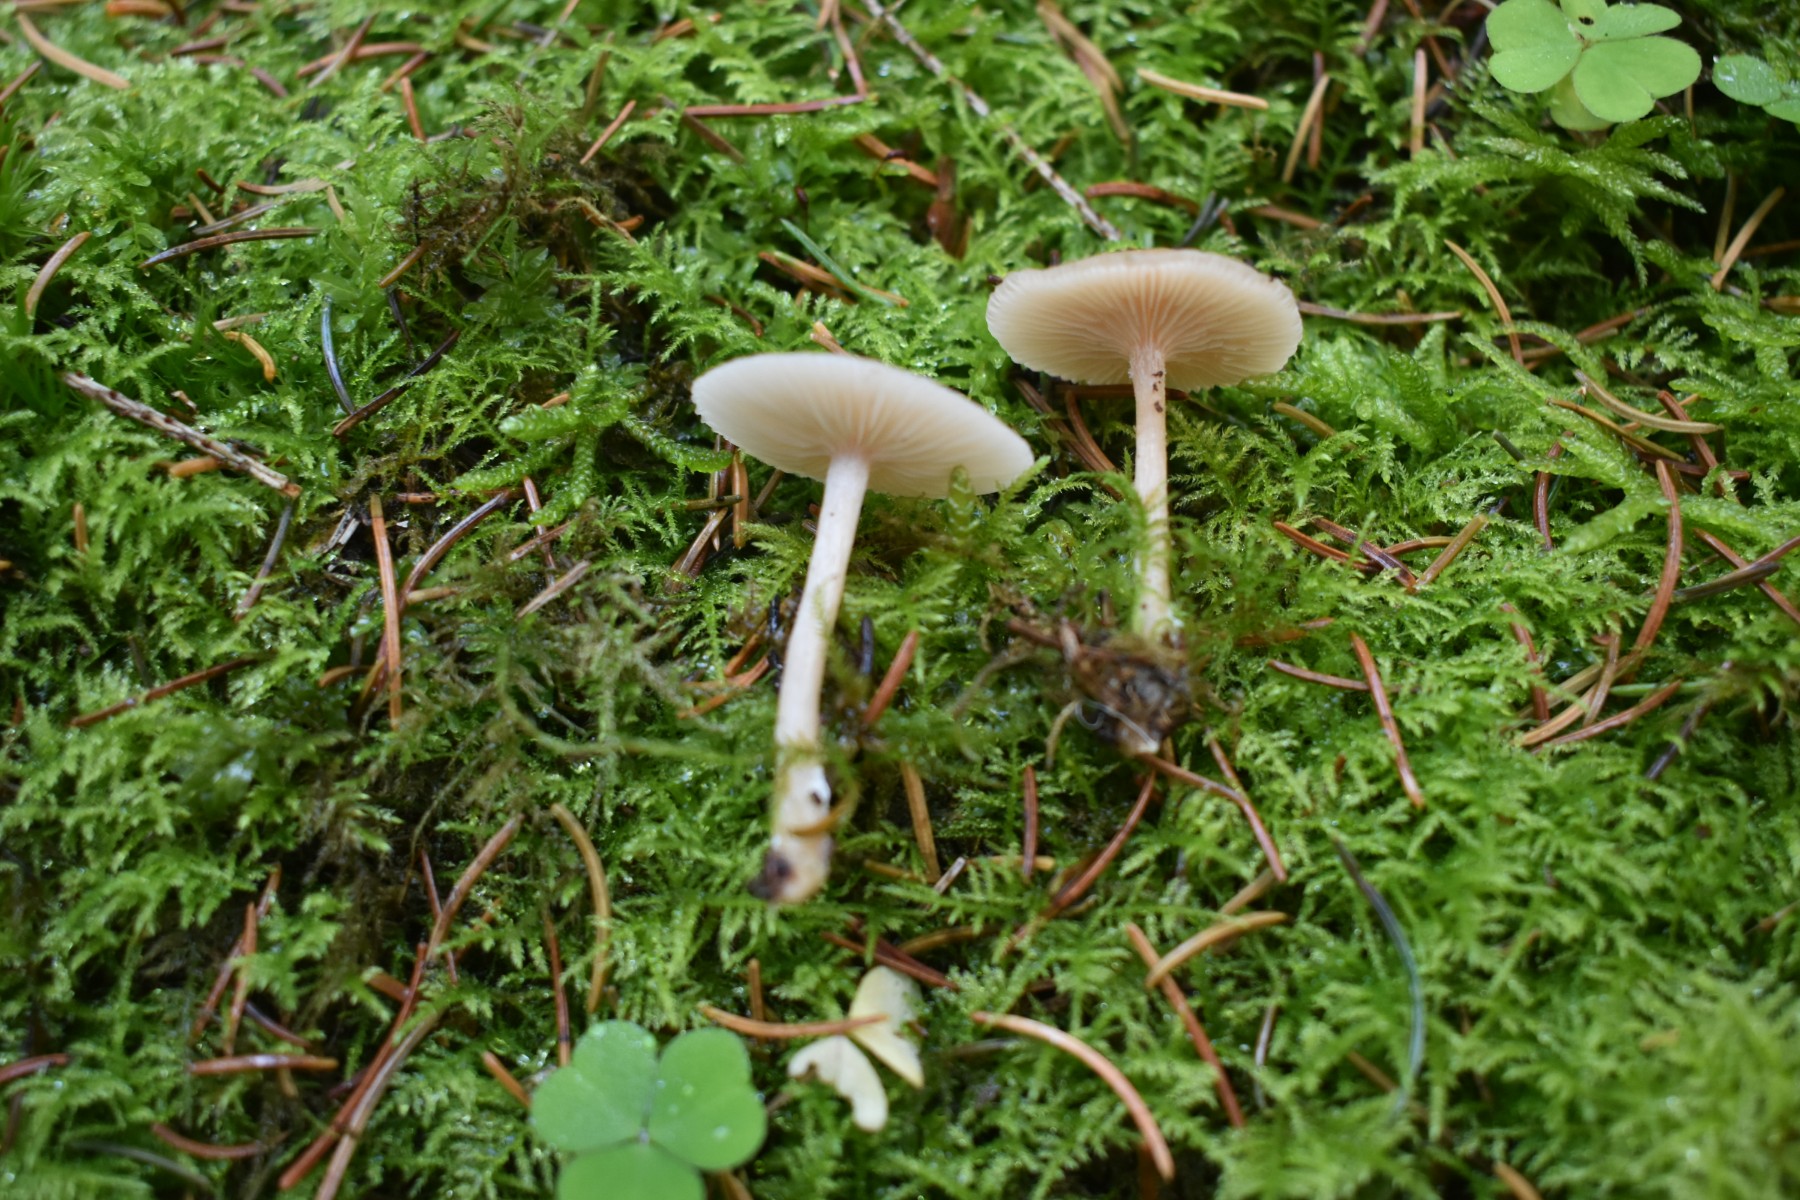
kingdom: Fungi
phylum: Basidiomycota
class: Agaricomycetes
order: Agaricales
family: Tricholomataceae
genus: Clitocybe
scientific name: Clitocybe fragrans
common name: vellugtende tragthat
